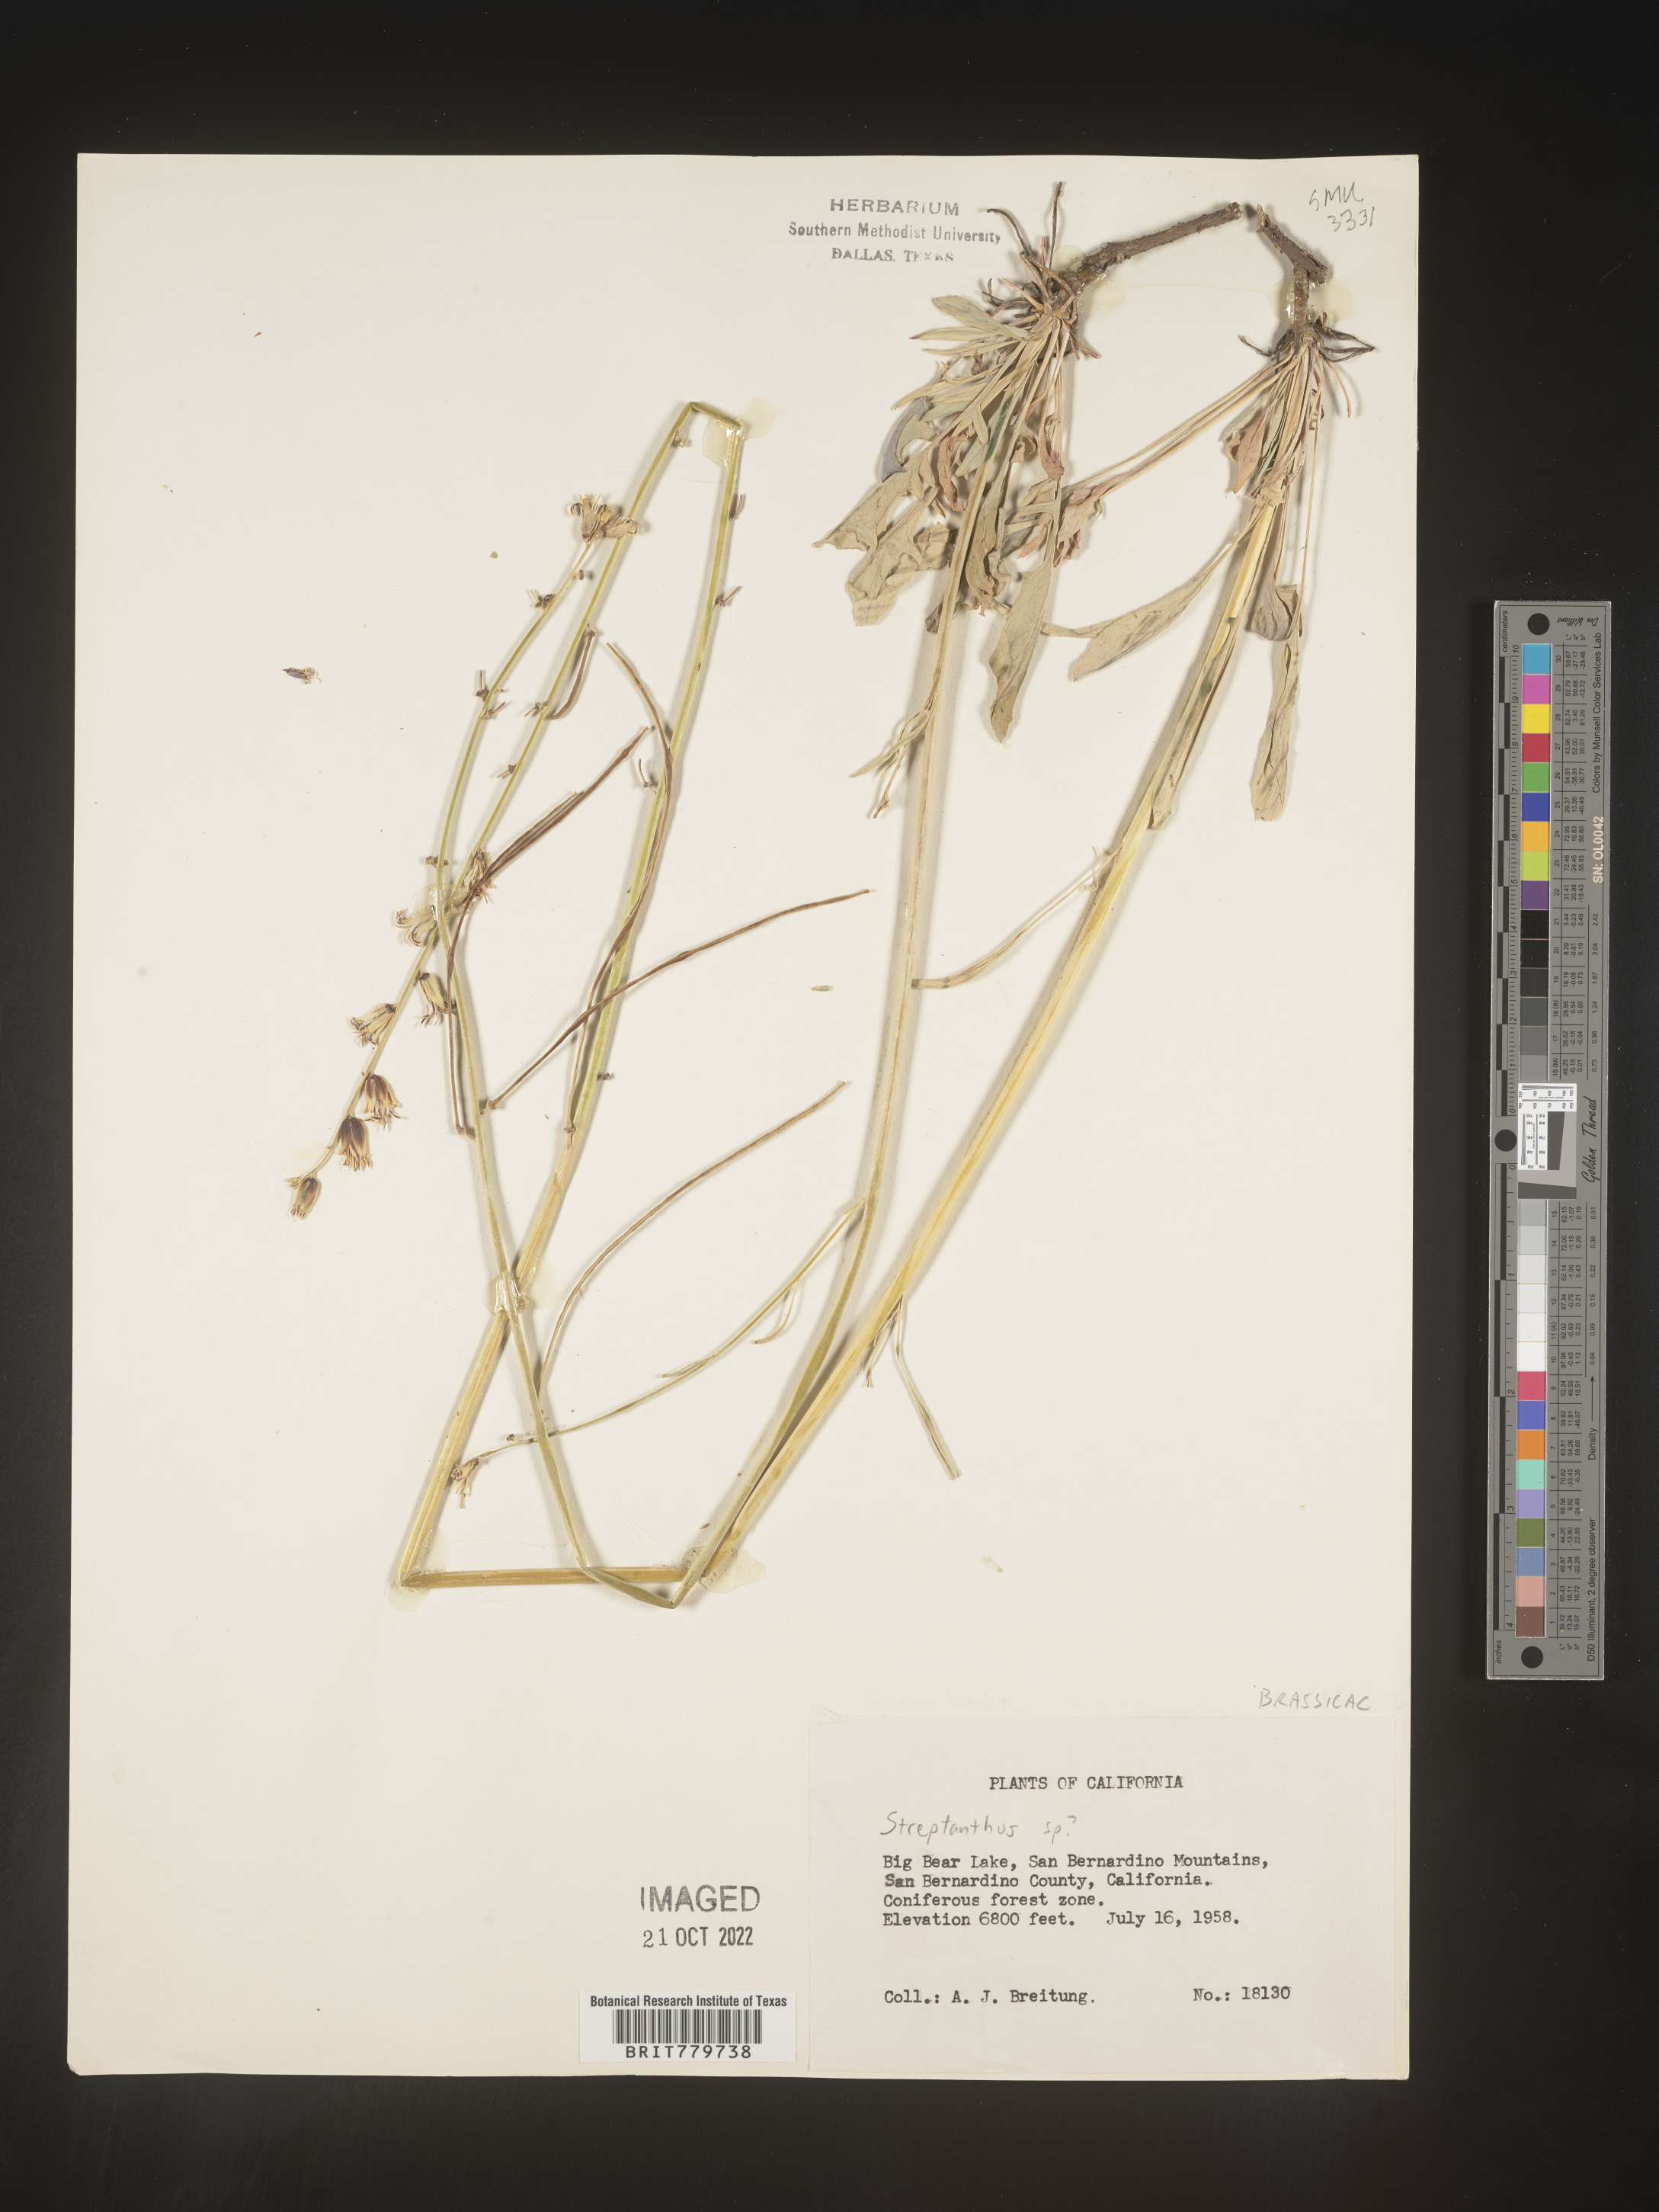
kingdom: Plantae
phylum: Tracheophyta
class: Magnoliopsida
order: Brassicales
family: Brassicaceae
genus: Streptanthus
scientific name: Streptanthus
